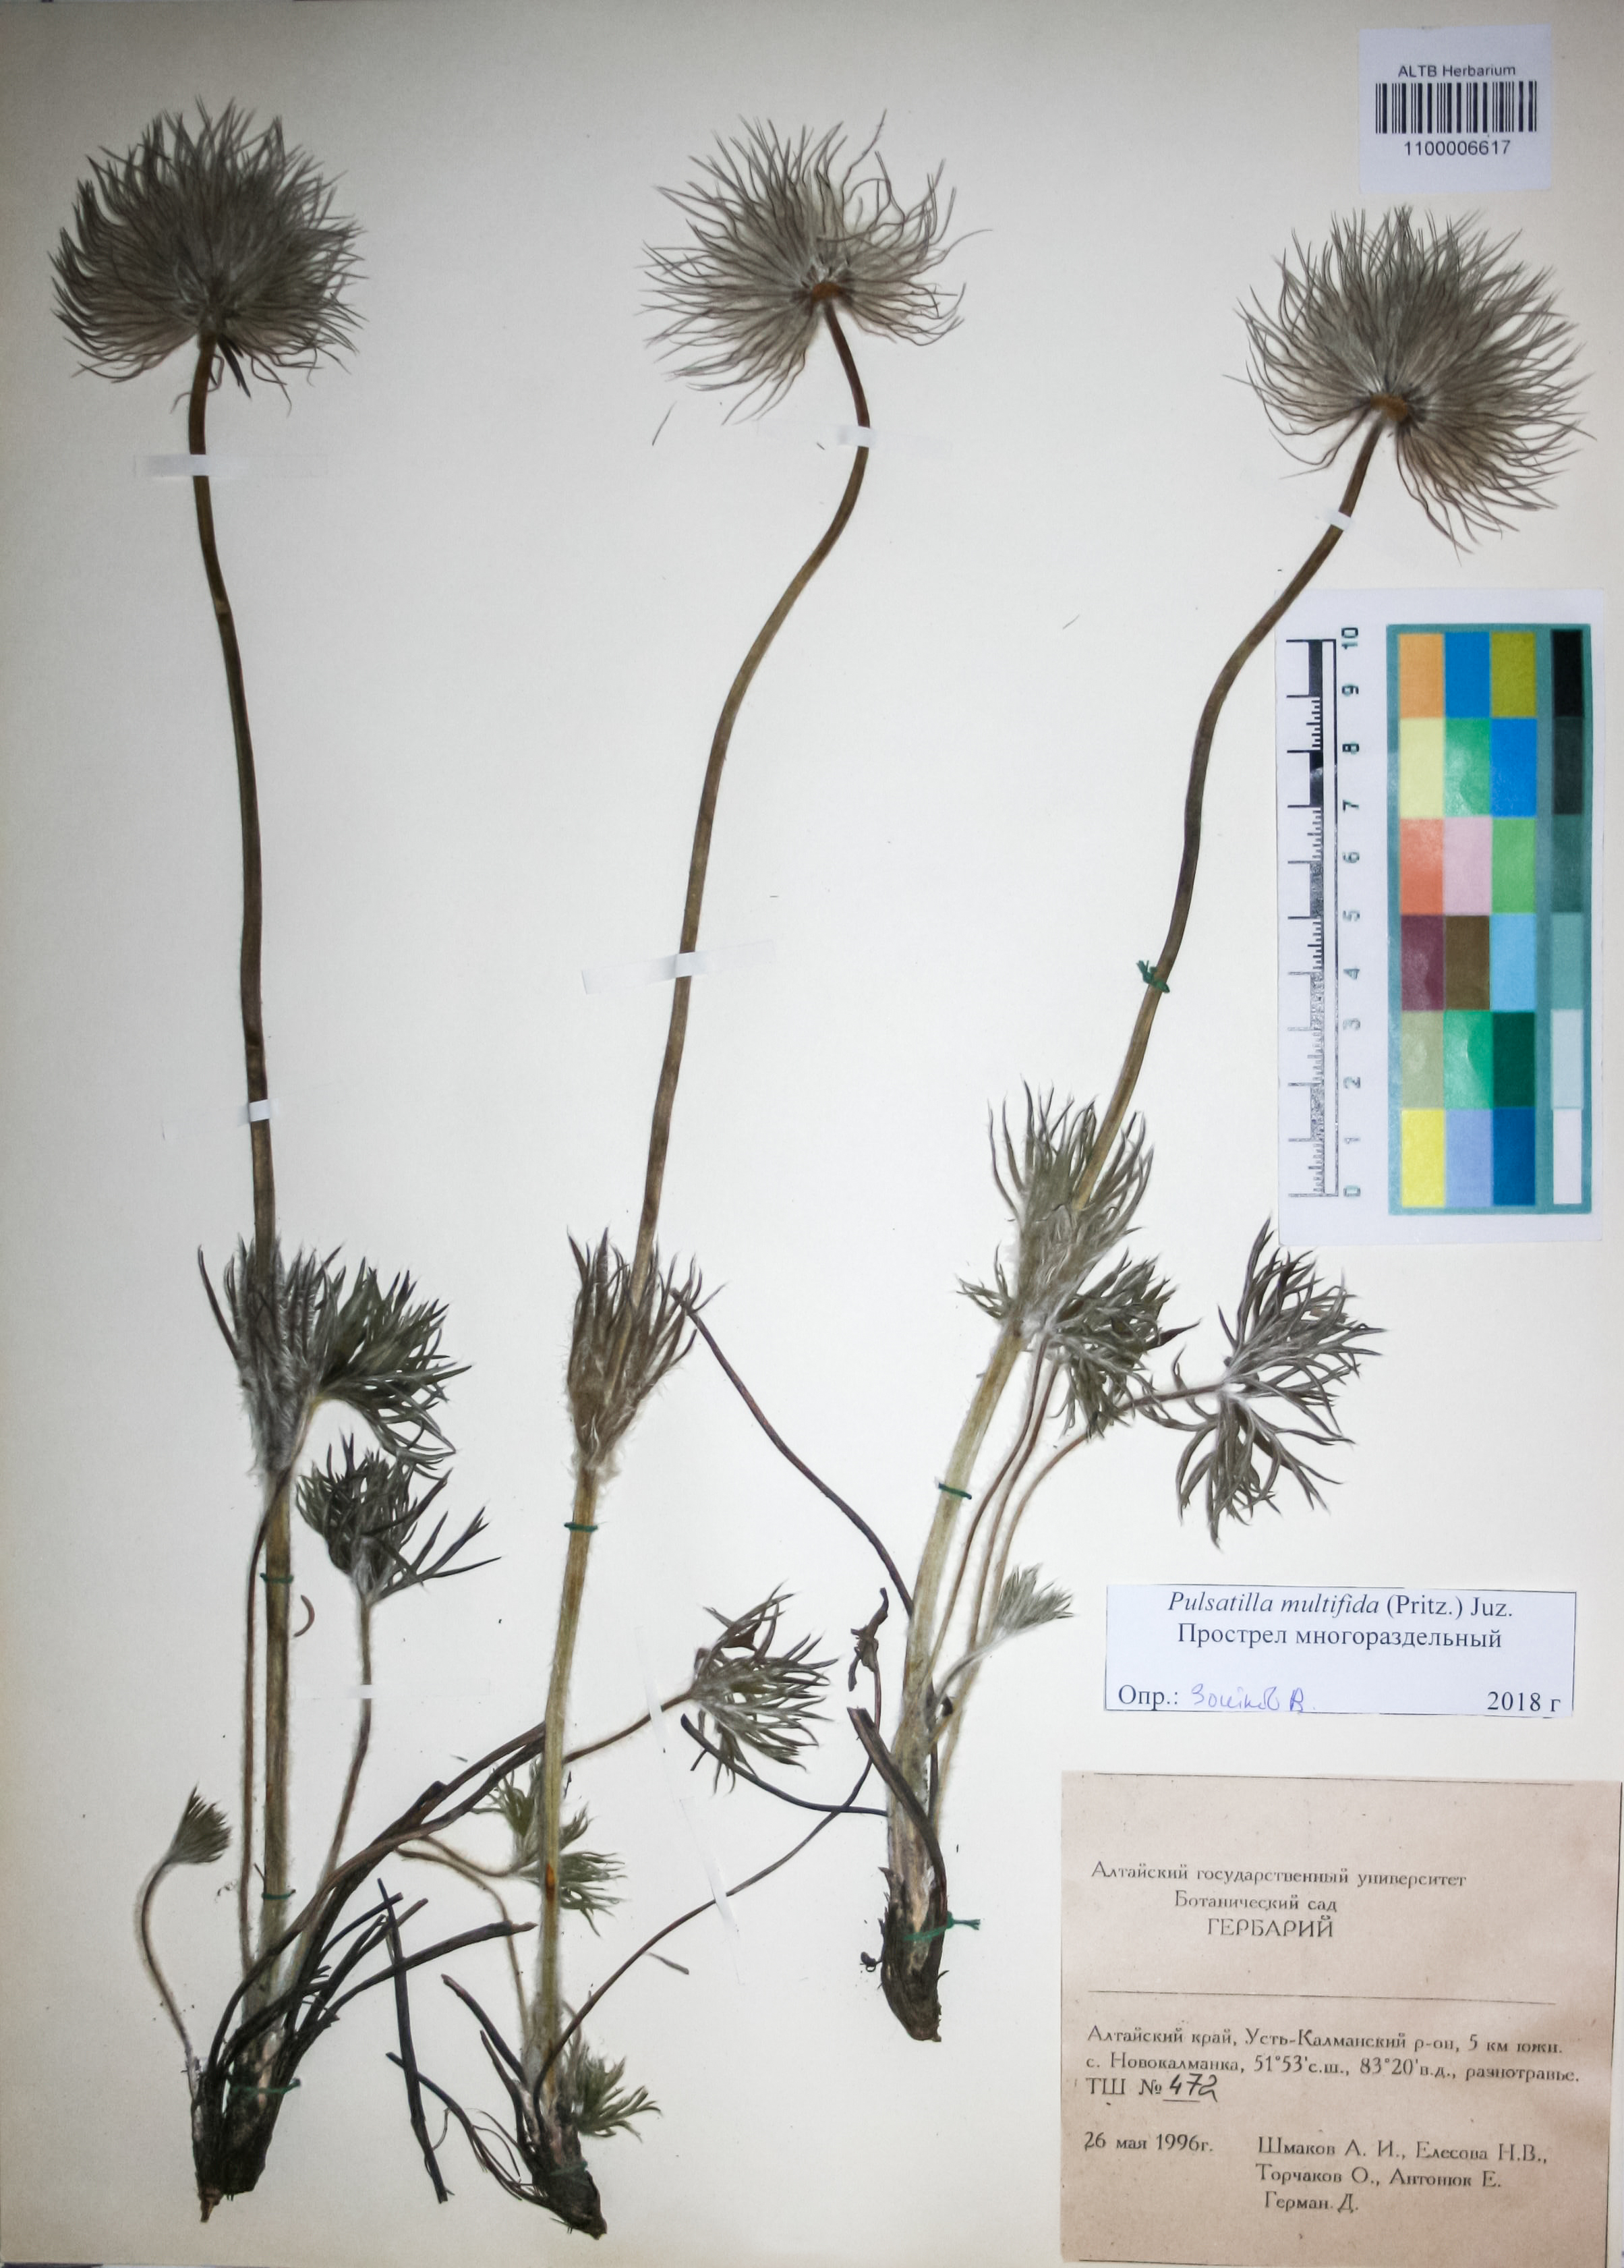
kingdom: Plantae
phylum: Tracheophyta
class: Magnoliopsida
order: Ranunculales
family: Ranunculaceae
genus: Pulsatilla
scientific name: Pulsatilla patens
